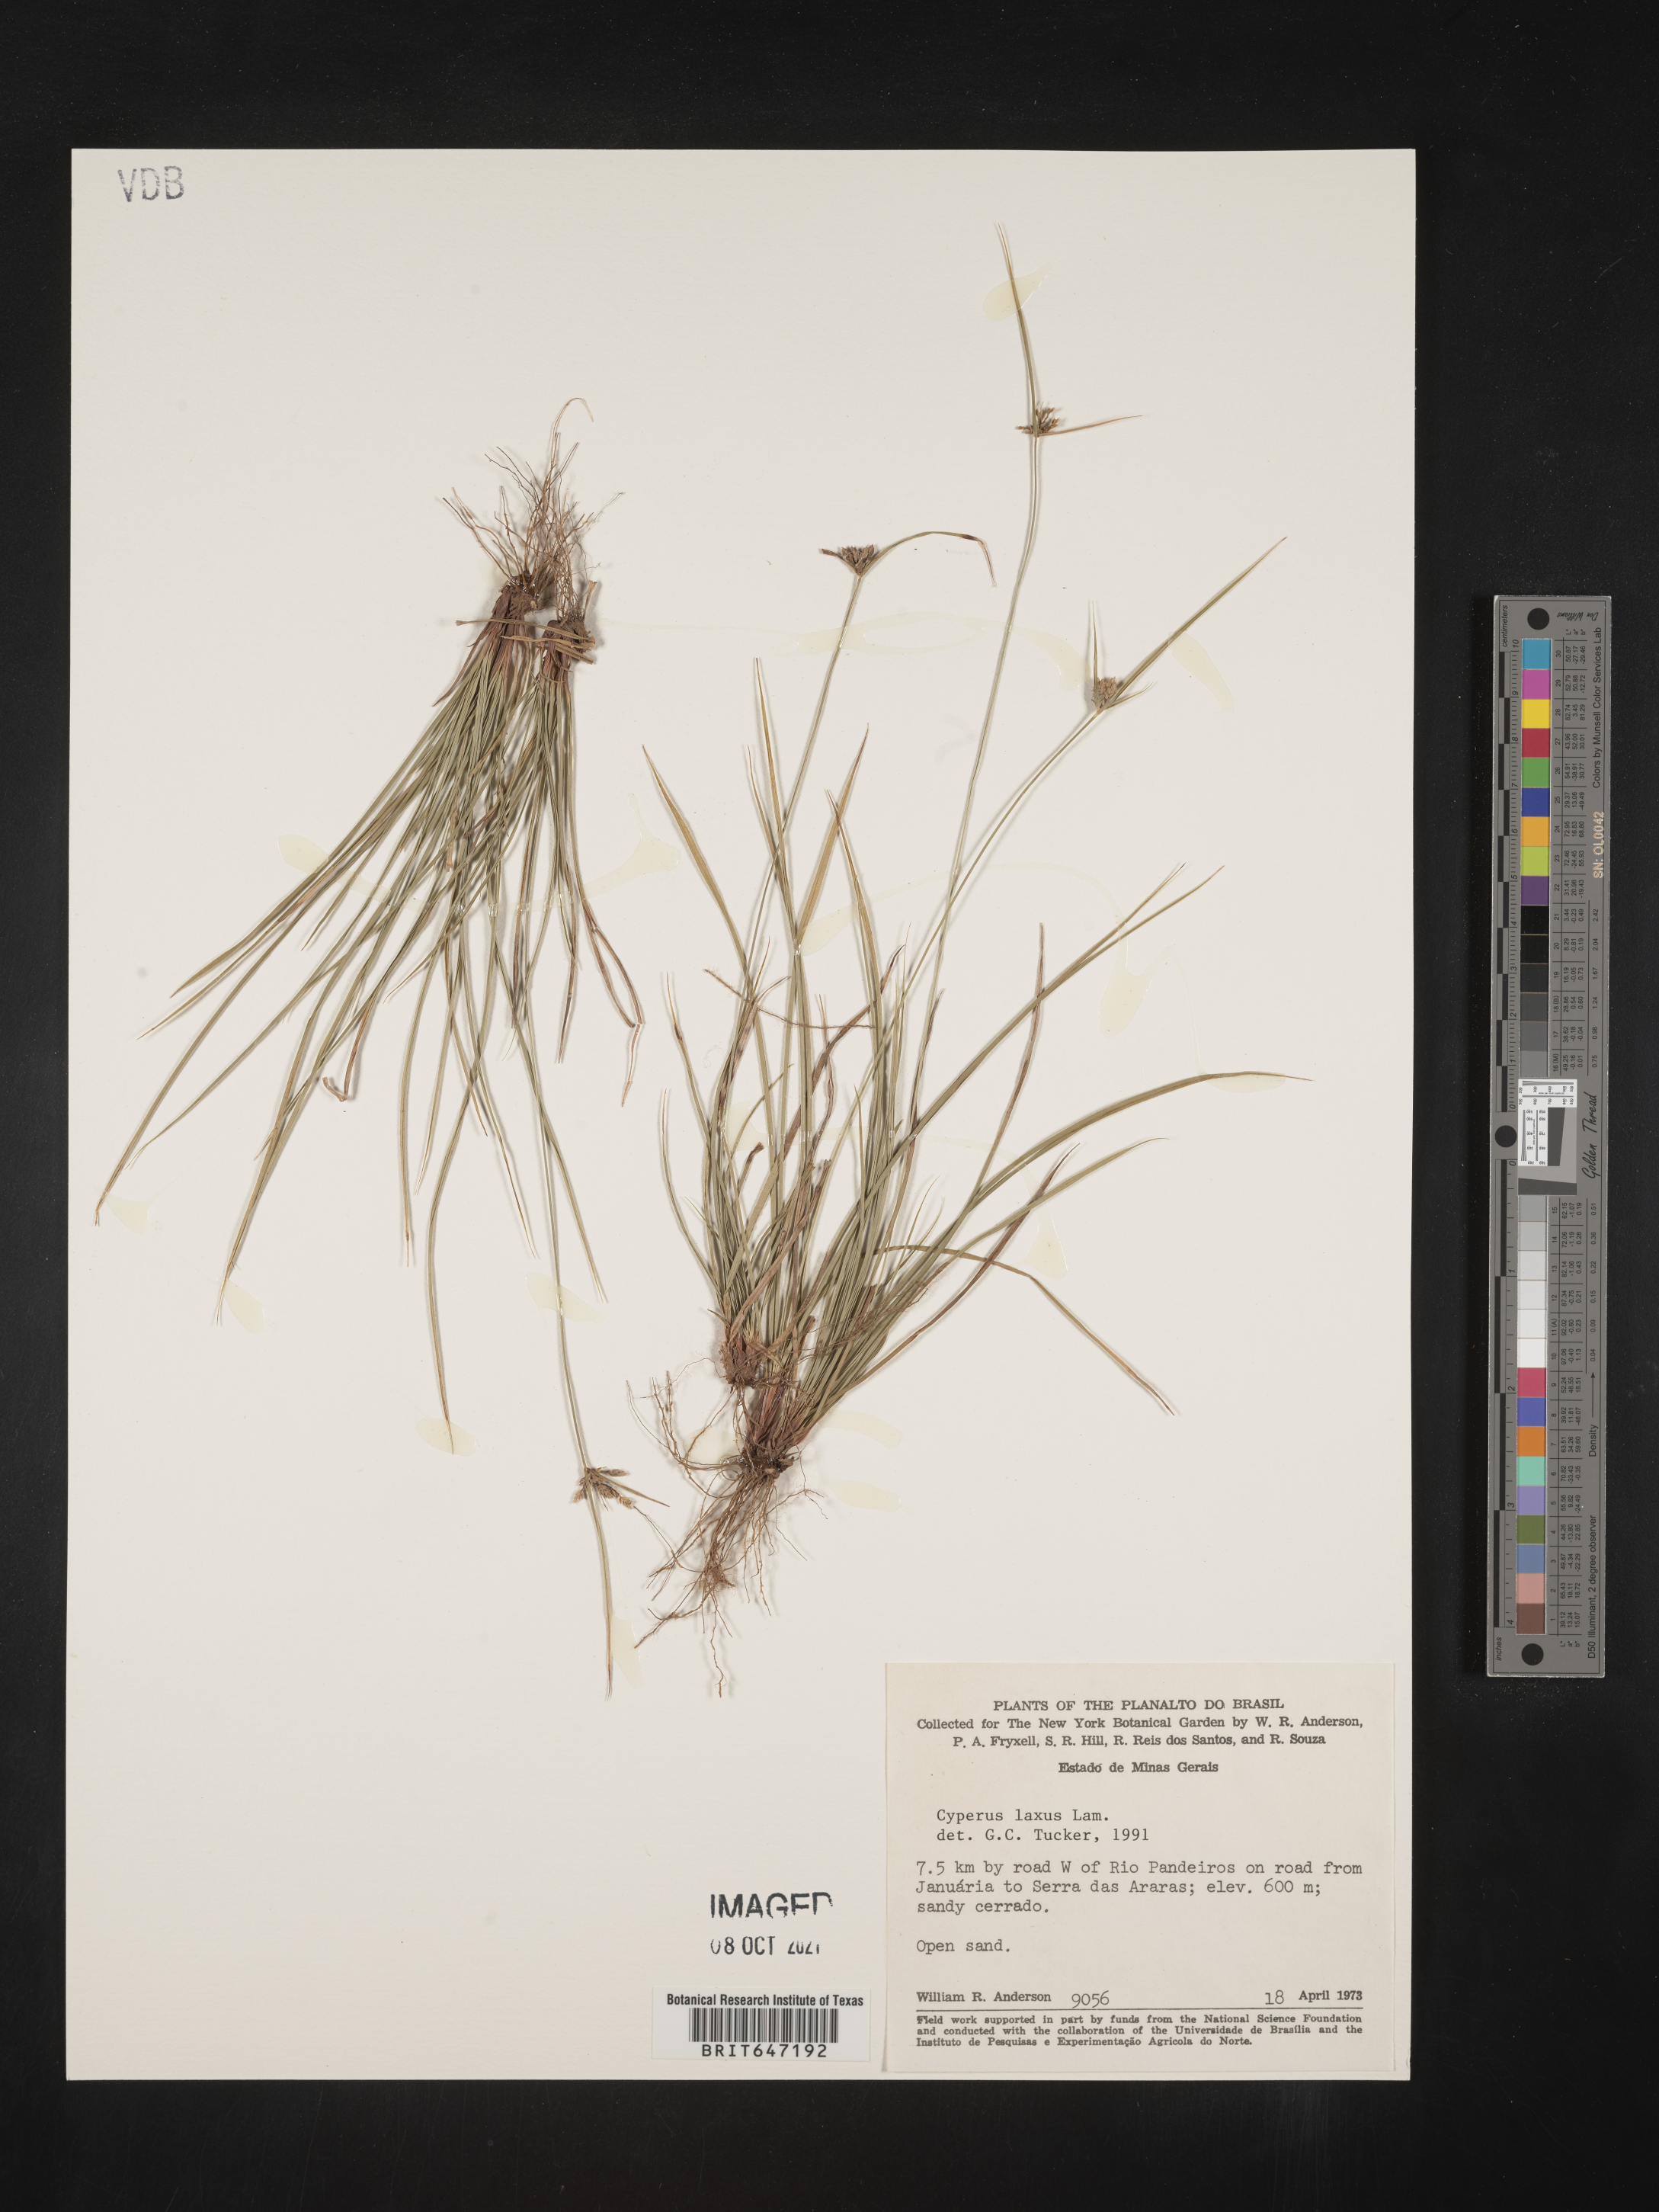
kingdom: Plantae
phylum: Tracheophyta
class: Liliopsida
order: Poales
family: Cyperaceae
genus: Cyperus
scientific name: Cyperus laxus
